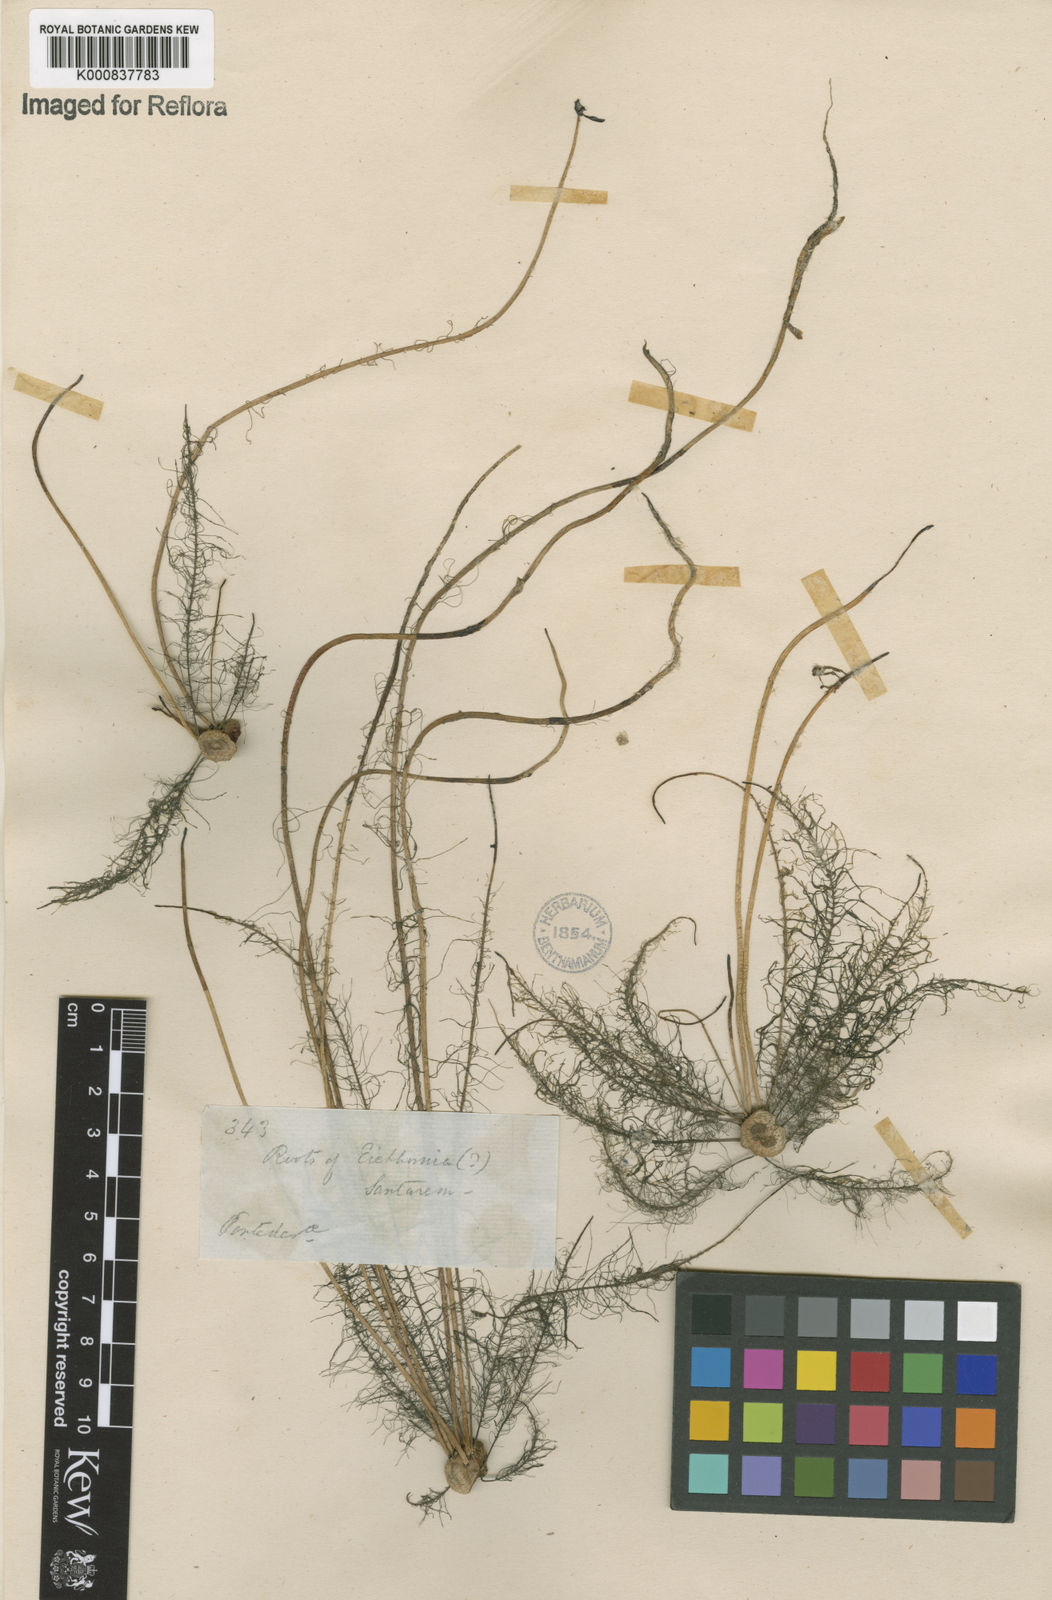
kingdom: Plantae
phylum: Tracheophyta
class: Liliopsida
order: Commelinales
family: Pontederiaceae
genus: Pontederia
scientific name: Pontederia crassipes
